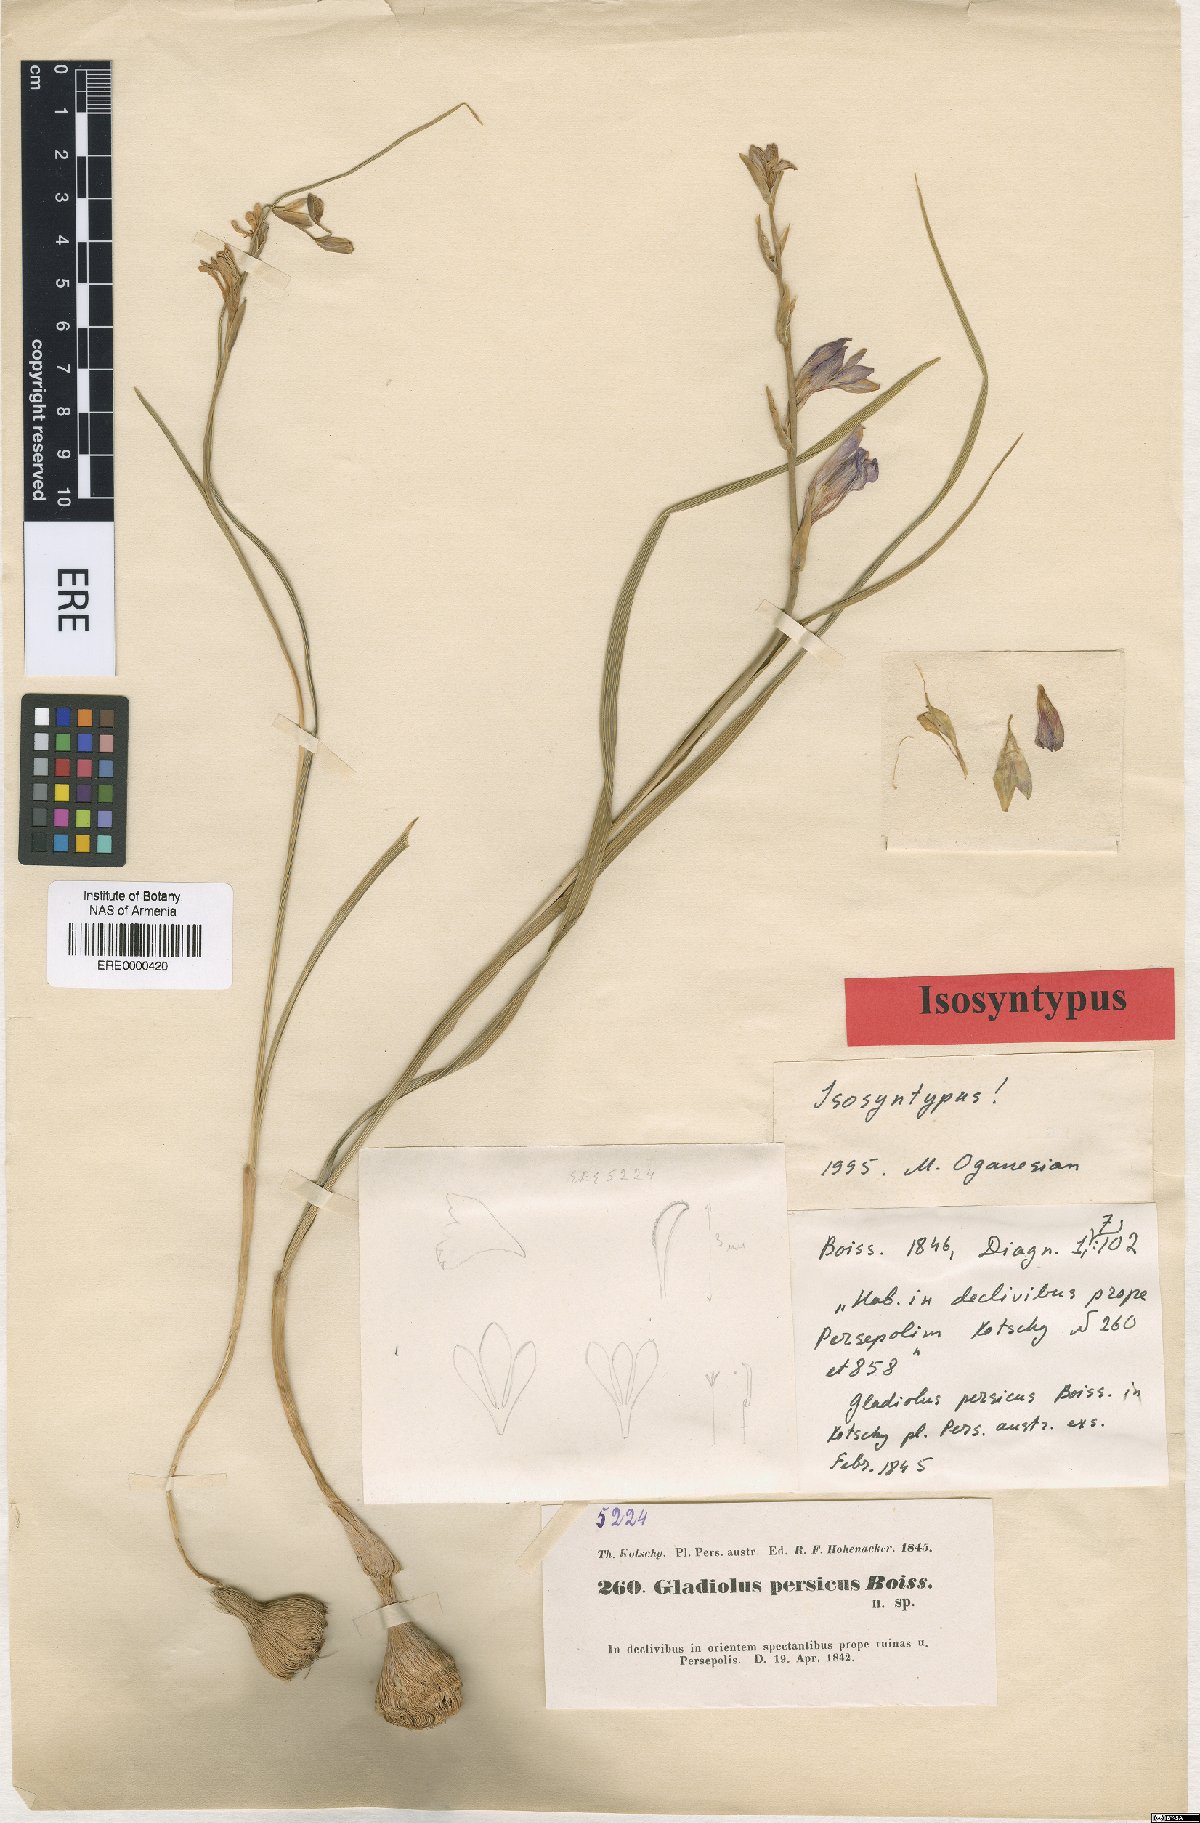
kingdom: Plantae
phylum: Tracheophyta
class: Liliopsida
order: Asparagales
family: Iridaceae
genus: Gladiolus
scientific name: Gladiolus persicus
